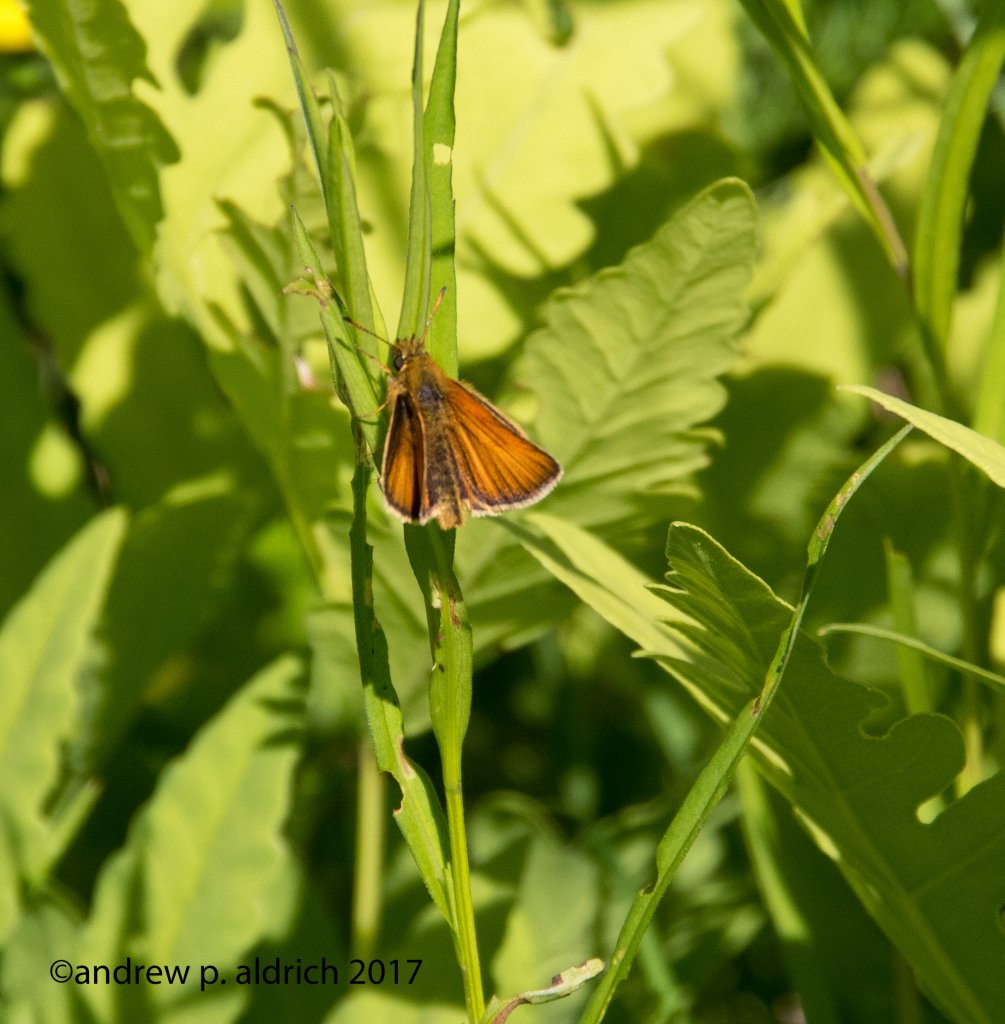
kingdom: Animalia
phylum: Arthropoda
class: Insecta
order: Lepidoptera
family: Hesperiidae
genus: Thymelicus
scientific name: Thymelicus lineola
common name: European Skipper
